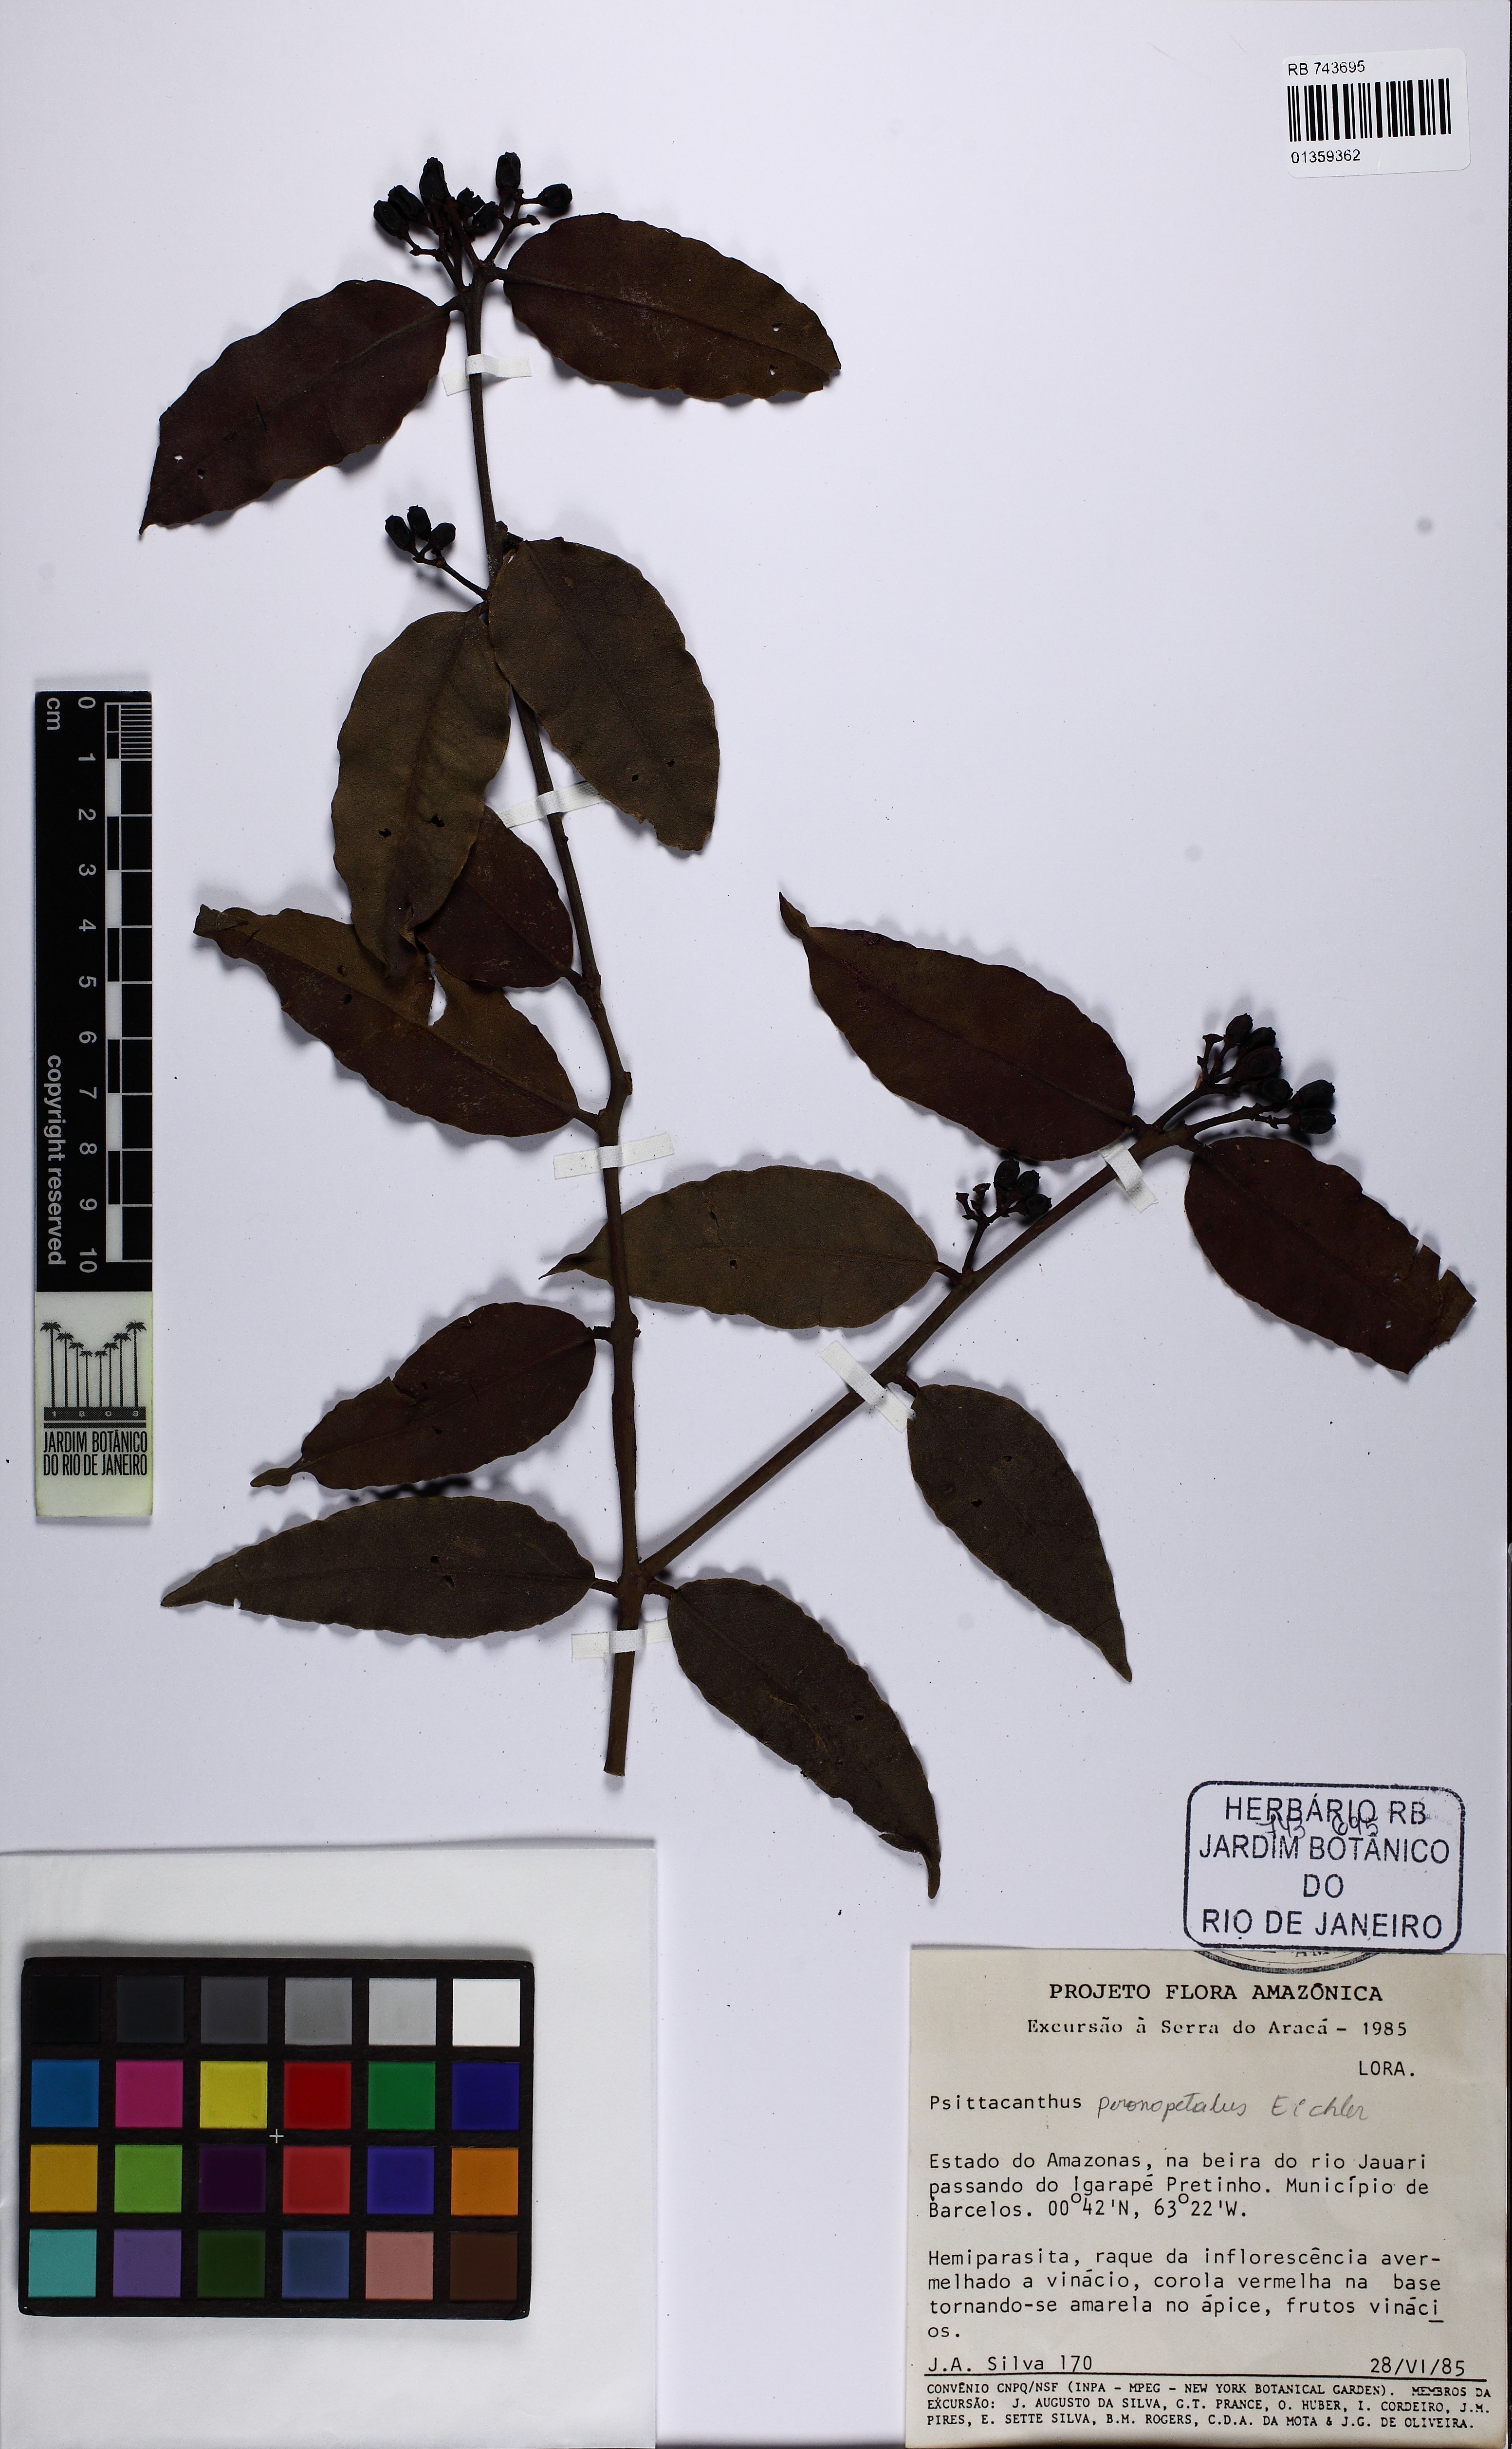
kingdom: Plantae
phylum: Tracheophyta
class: Magnoliopsida
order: Santalales
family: Loranthaceae
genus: Psittacanthus
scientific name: Psittacanthus peronopetalus
